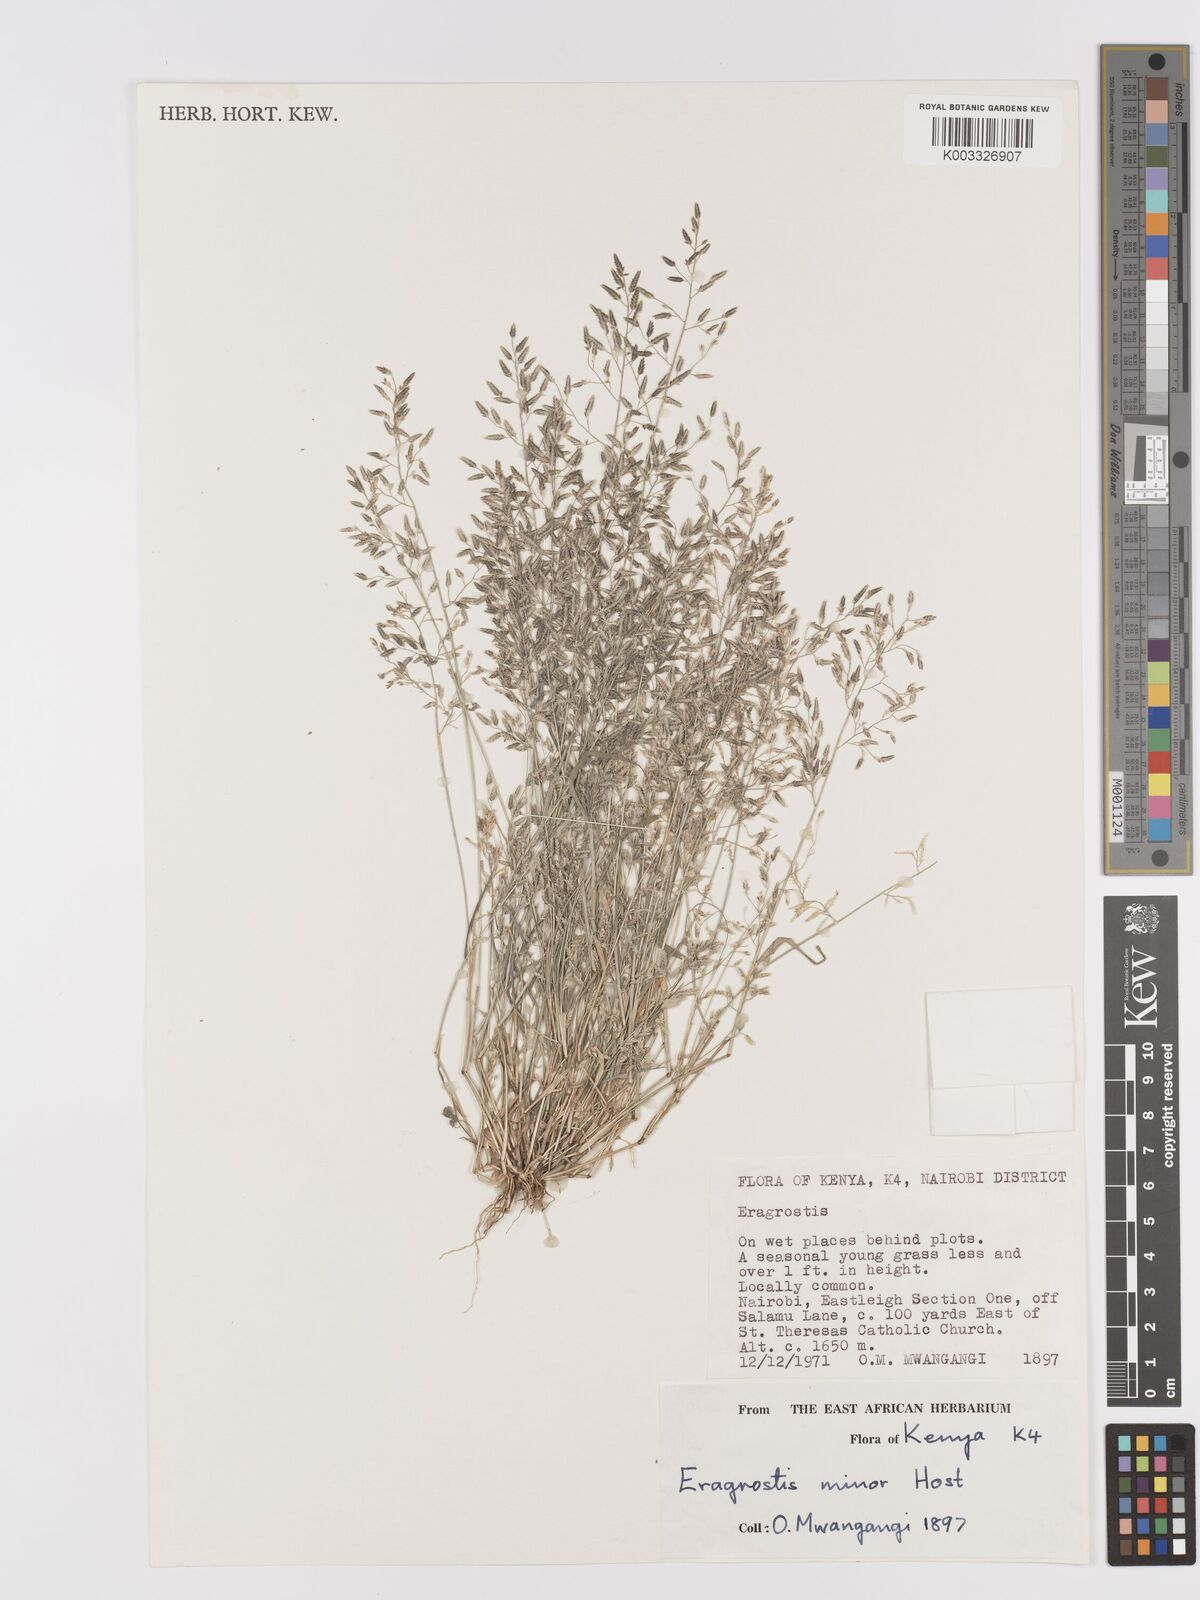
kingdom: Plantae
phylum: Tracheophyta
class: Liliopsida
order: Poales
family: Poaceae
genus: Eragrostis
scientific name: Eragrostis minor
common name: Small love-grass
